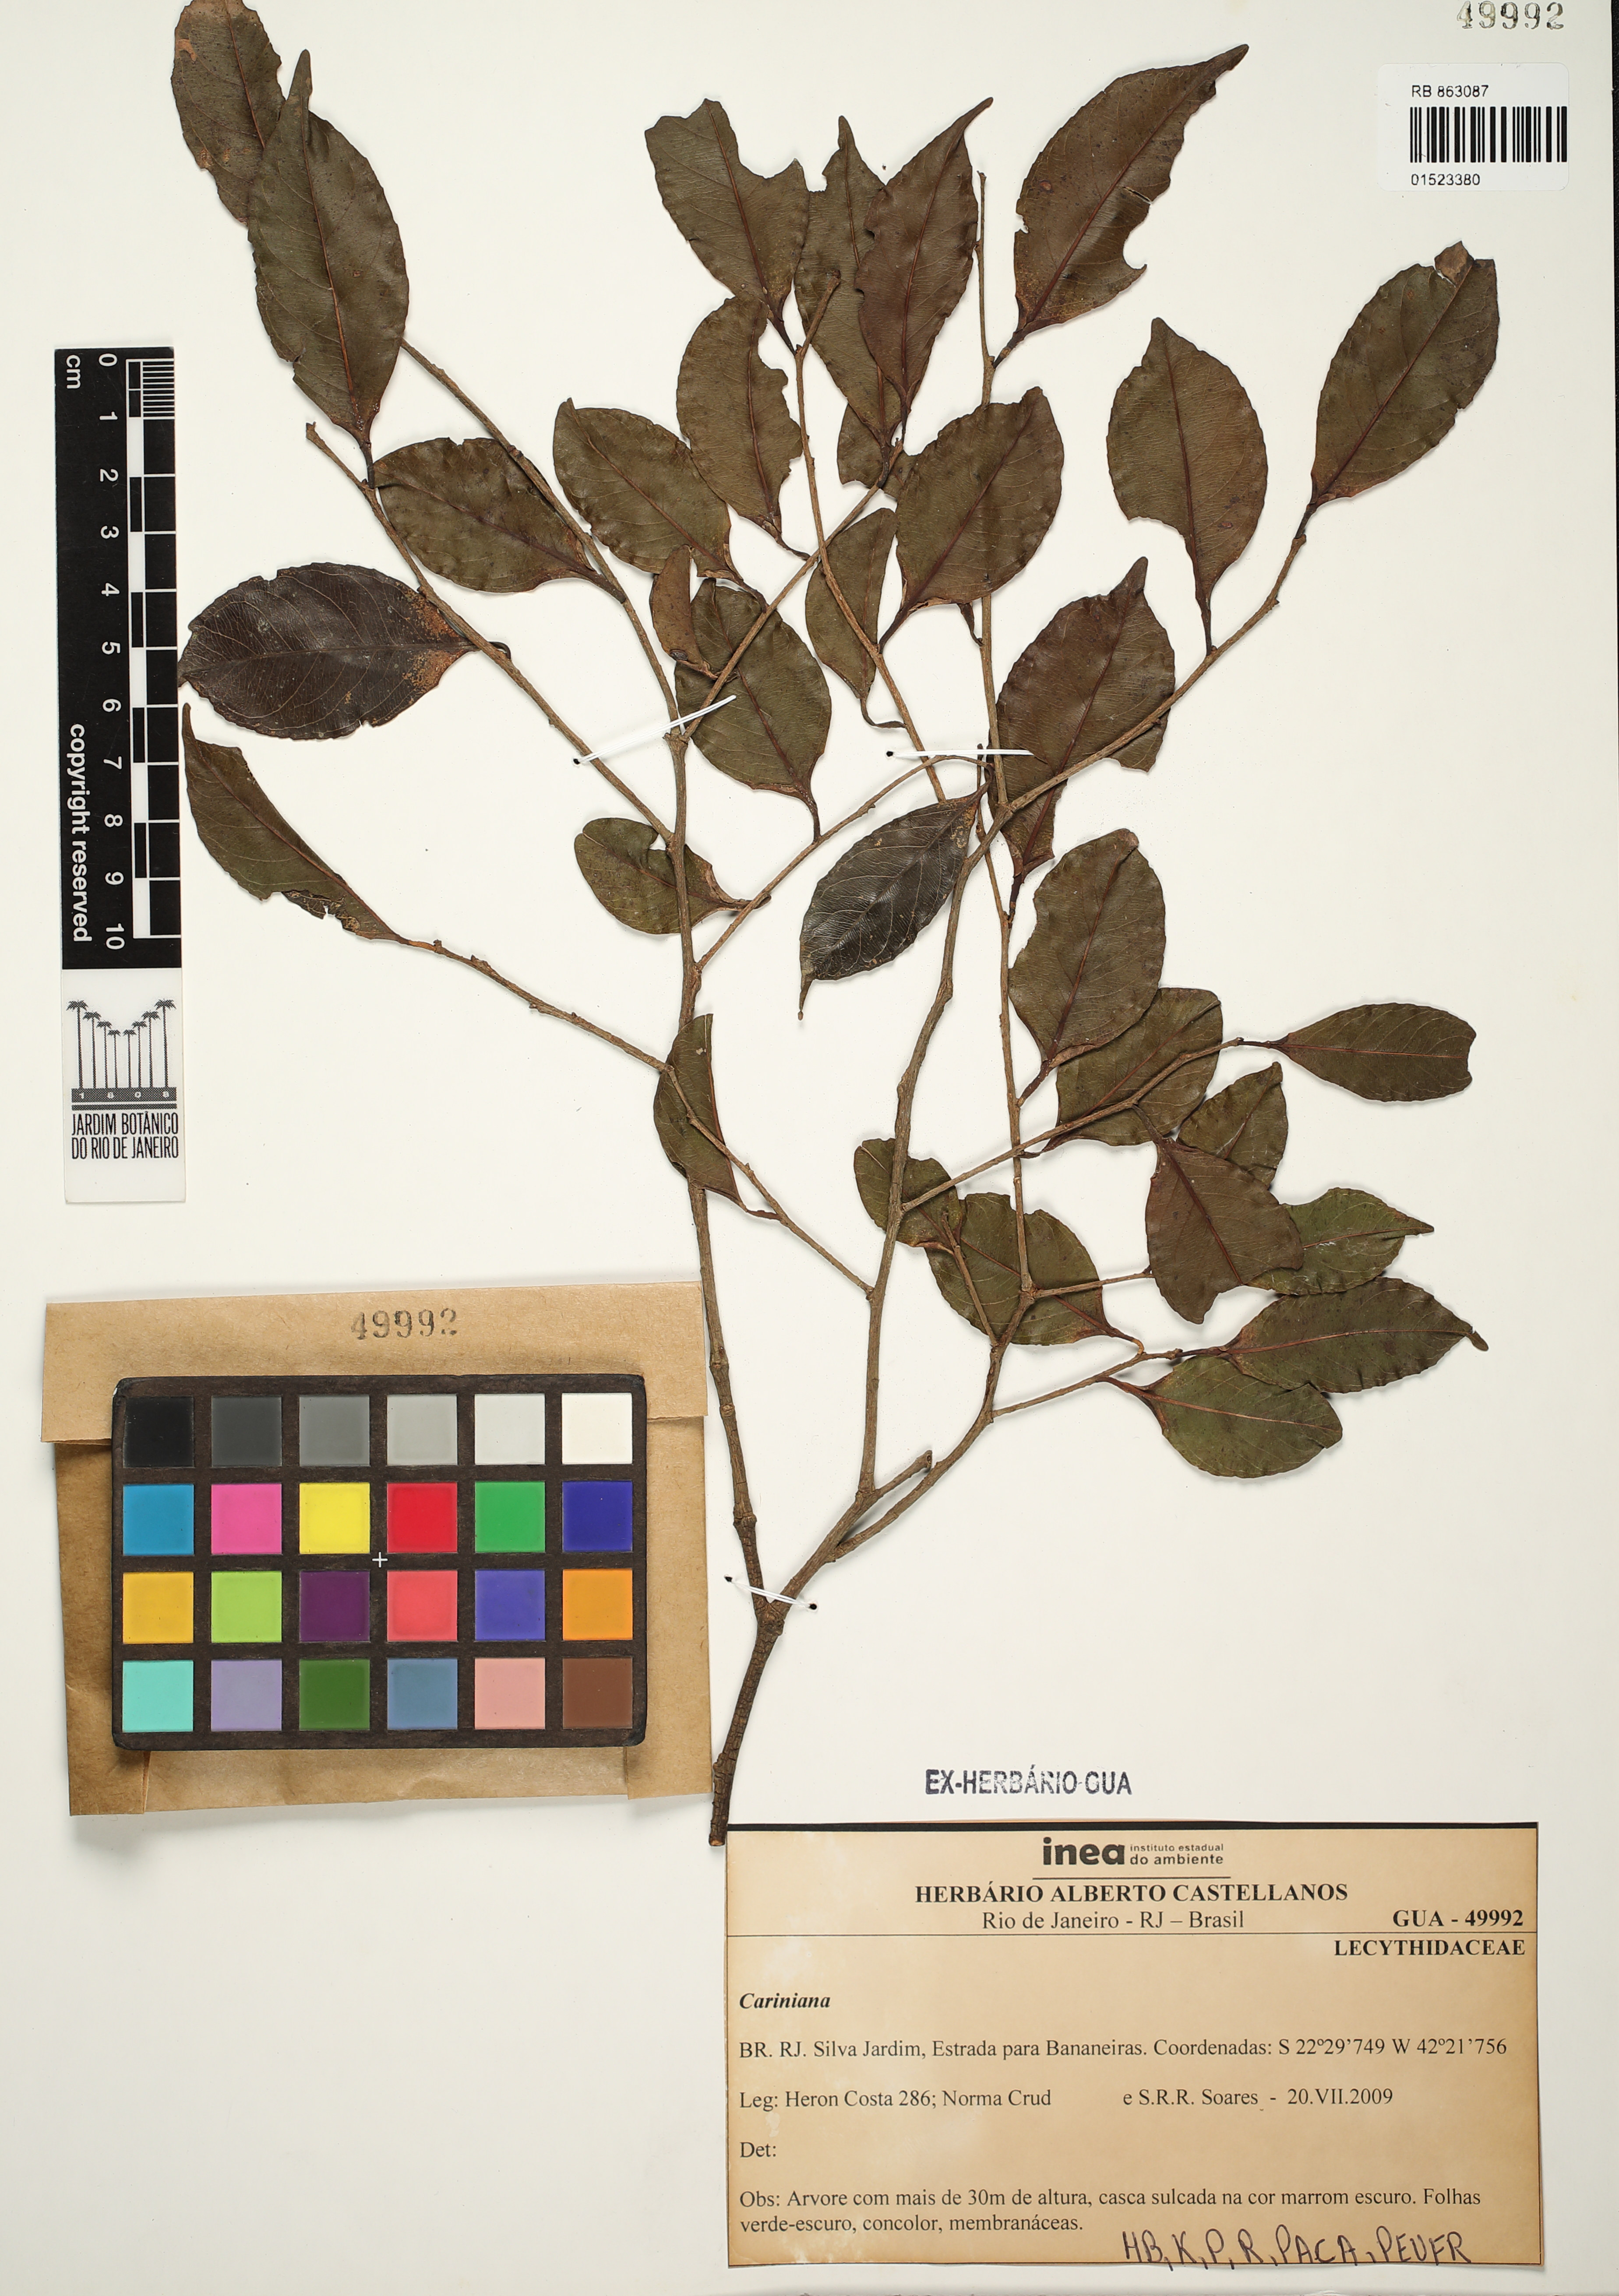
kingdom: Plantae
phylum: Tracheophyta
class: Magnoliopsida
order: Ericales
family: Lecythidaceae
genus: Cariniana
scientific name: Cariniana
